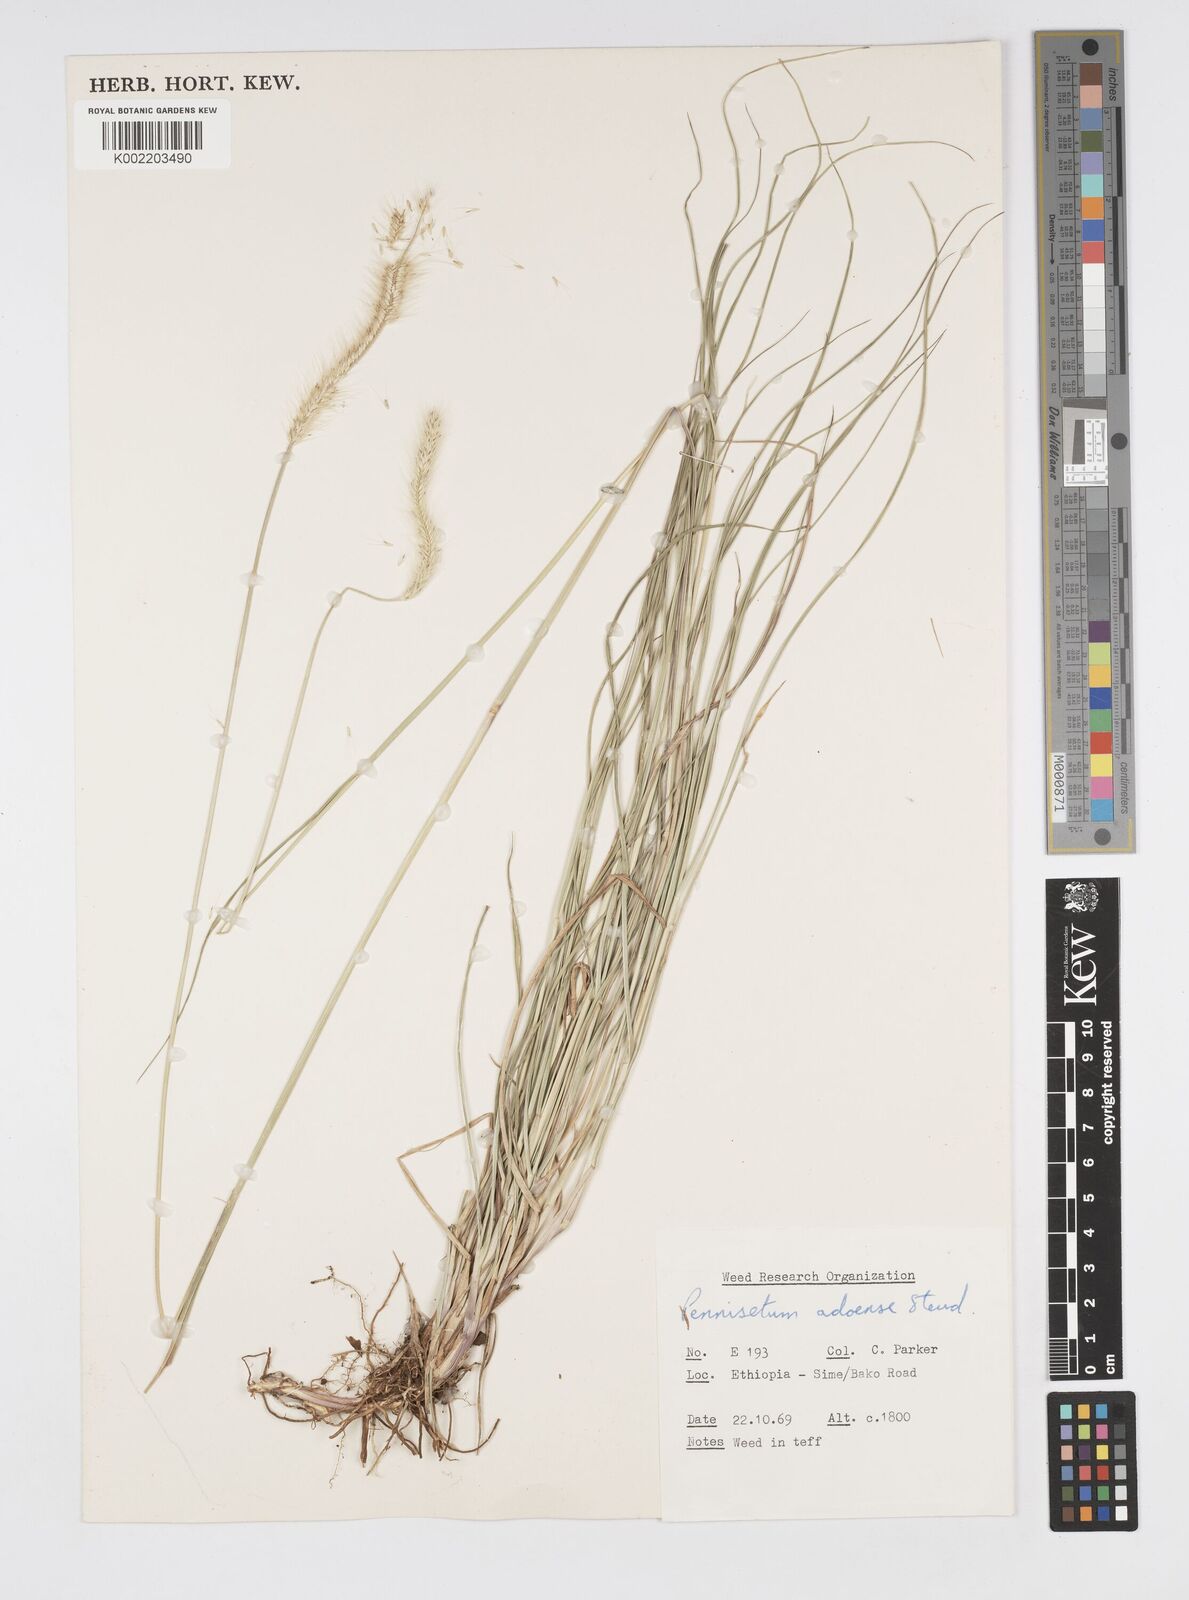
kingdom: Plantae
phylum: Tracheophyta
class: Liliopsida
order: Poales
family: Poaceae
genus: Cenchrus
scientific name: Cenchrus geniculatus
